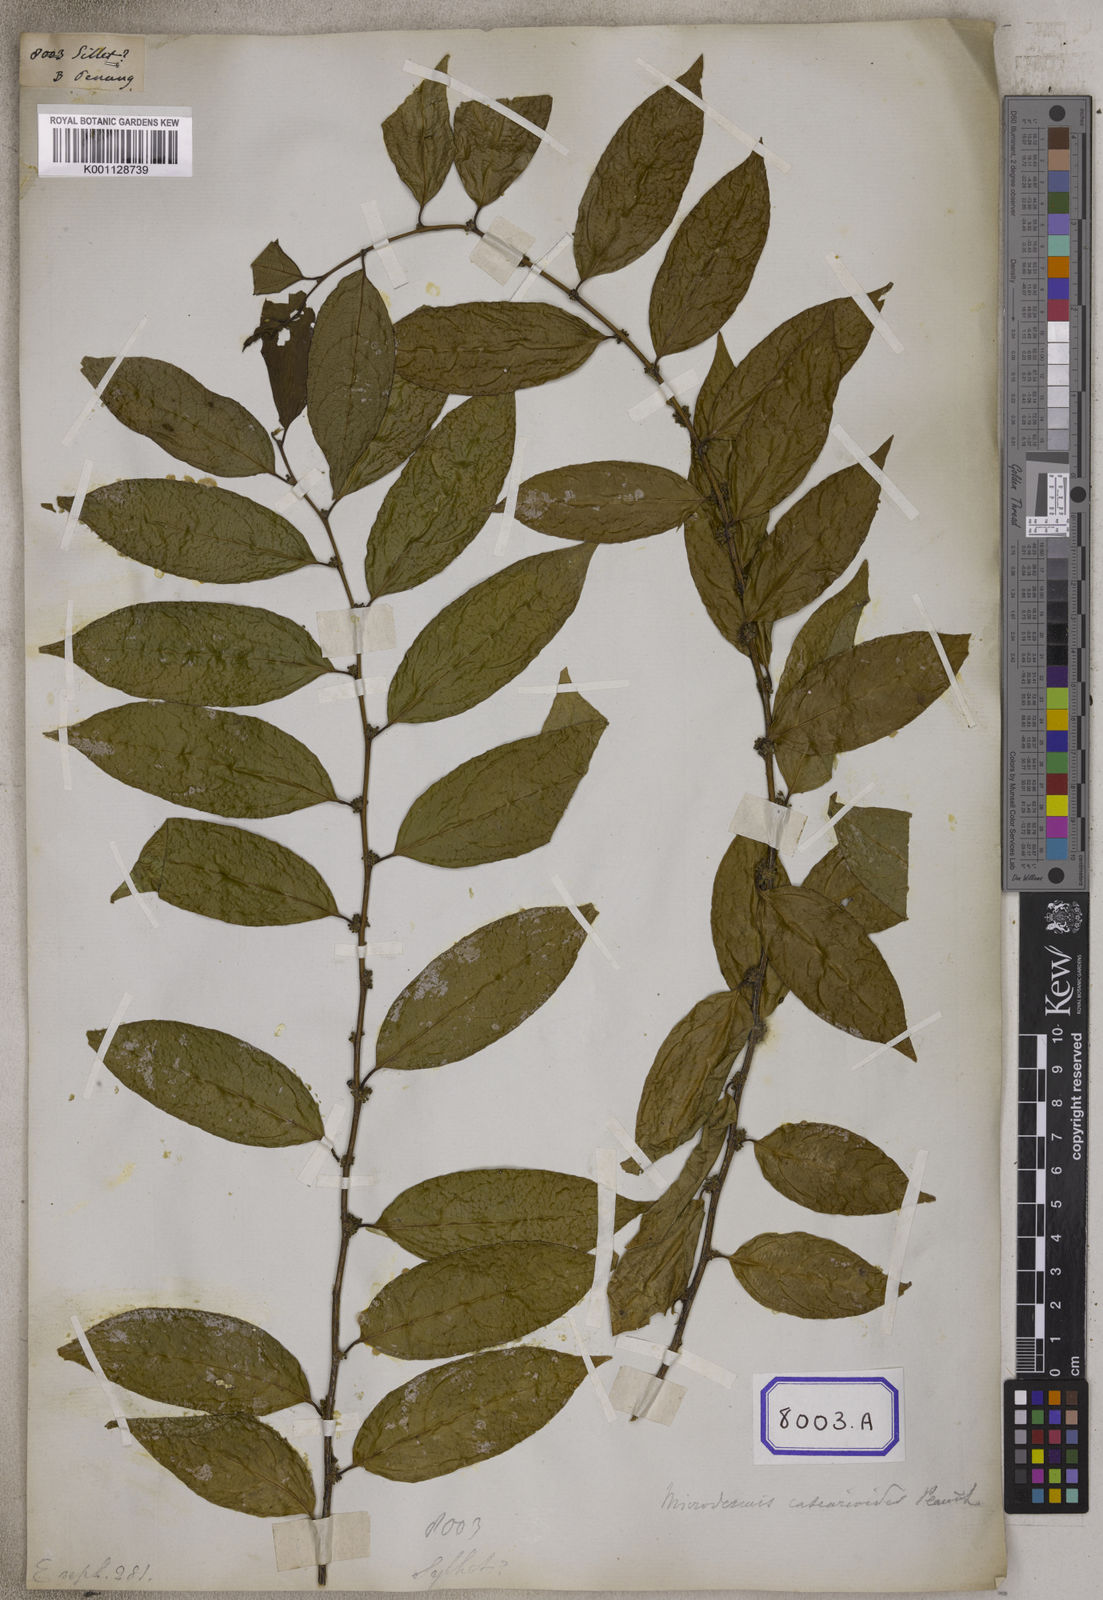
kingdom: Plantae
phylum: Tracheophyta
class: Magnoliopsida
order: Malpighiales
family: Euphorbiaceae
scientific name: Euphorbiaceae
